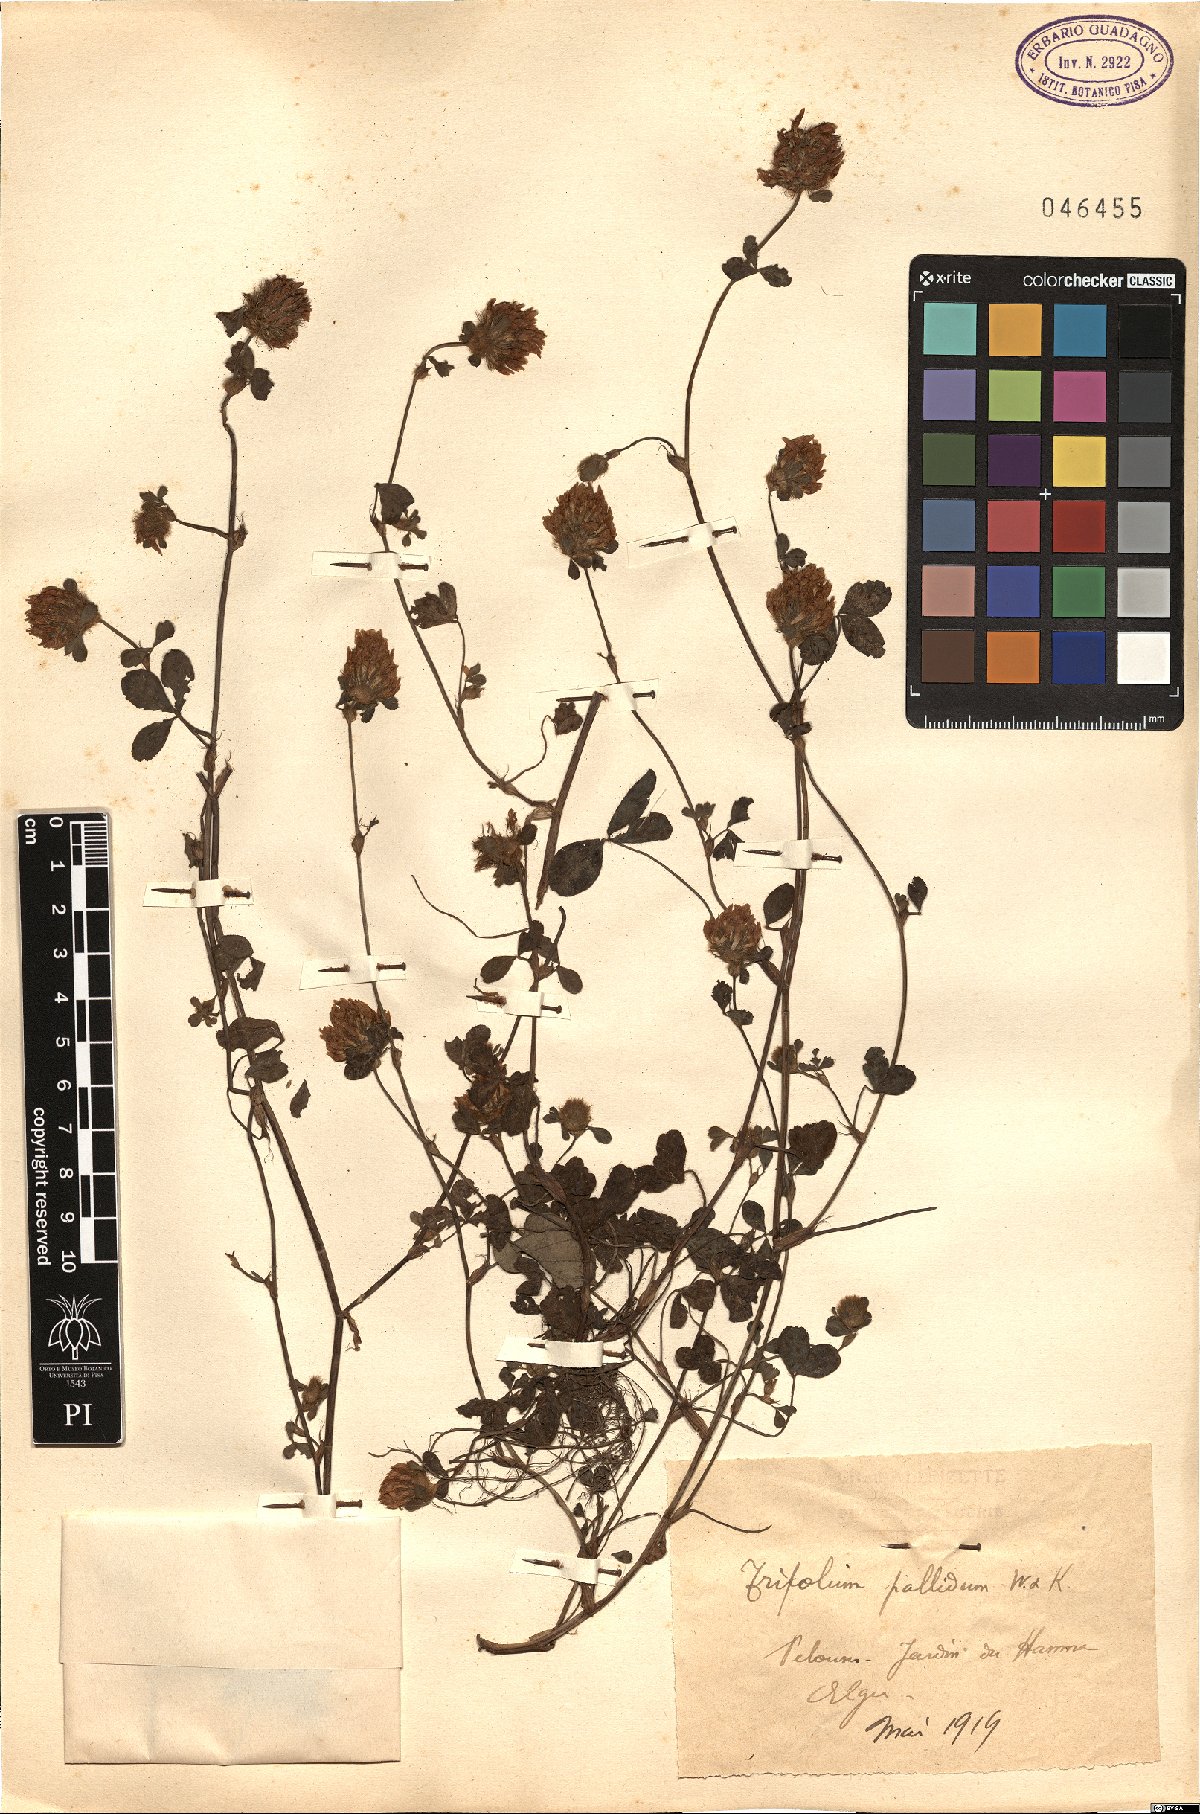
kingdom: Plantae
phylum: Tracheophyta
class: Magnoliopsida
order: Fabales
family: Fabaceae
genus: Trifolium
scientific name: Trifolium pallidum
